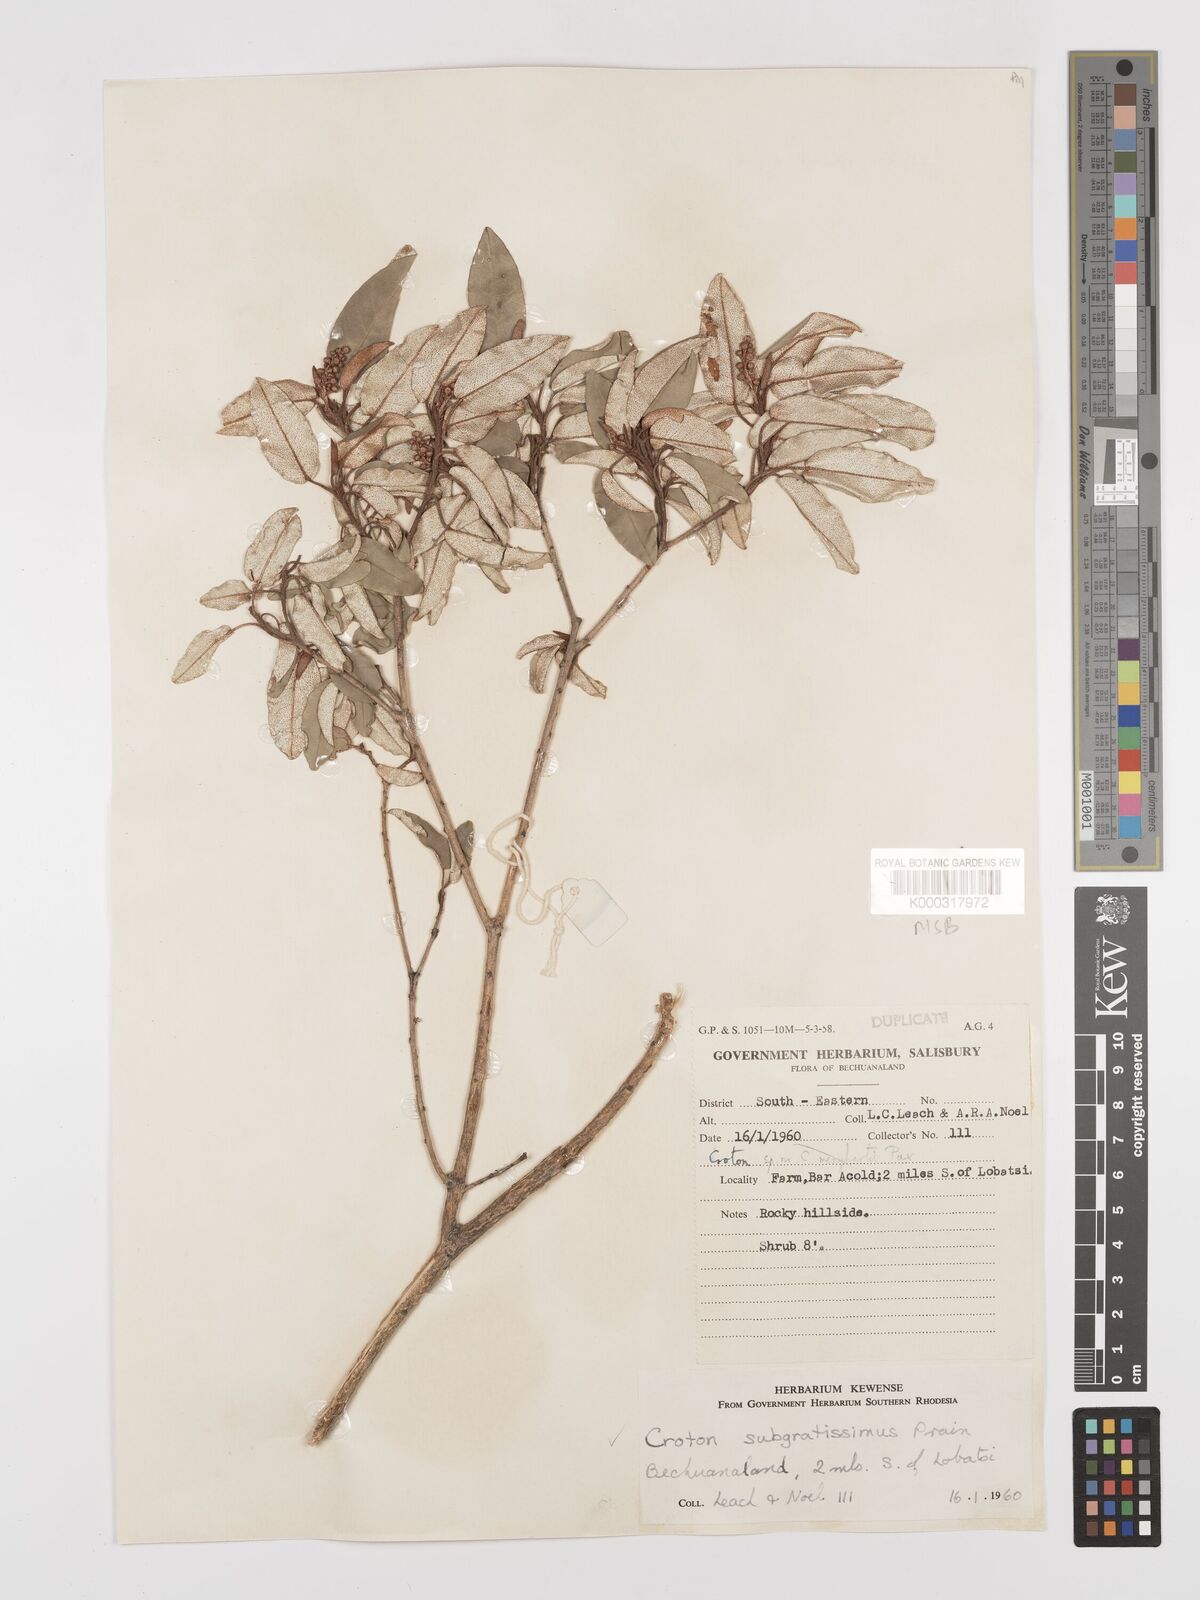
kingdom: Plantae
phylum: Tracheophyta
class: Magnoliopsida
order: Malpighiales
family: Euphorbiaceae
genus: Croton
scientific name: Croton gratissimus
